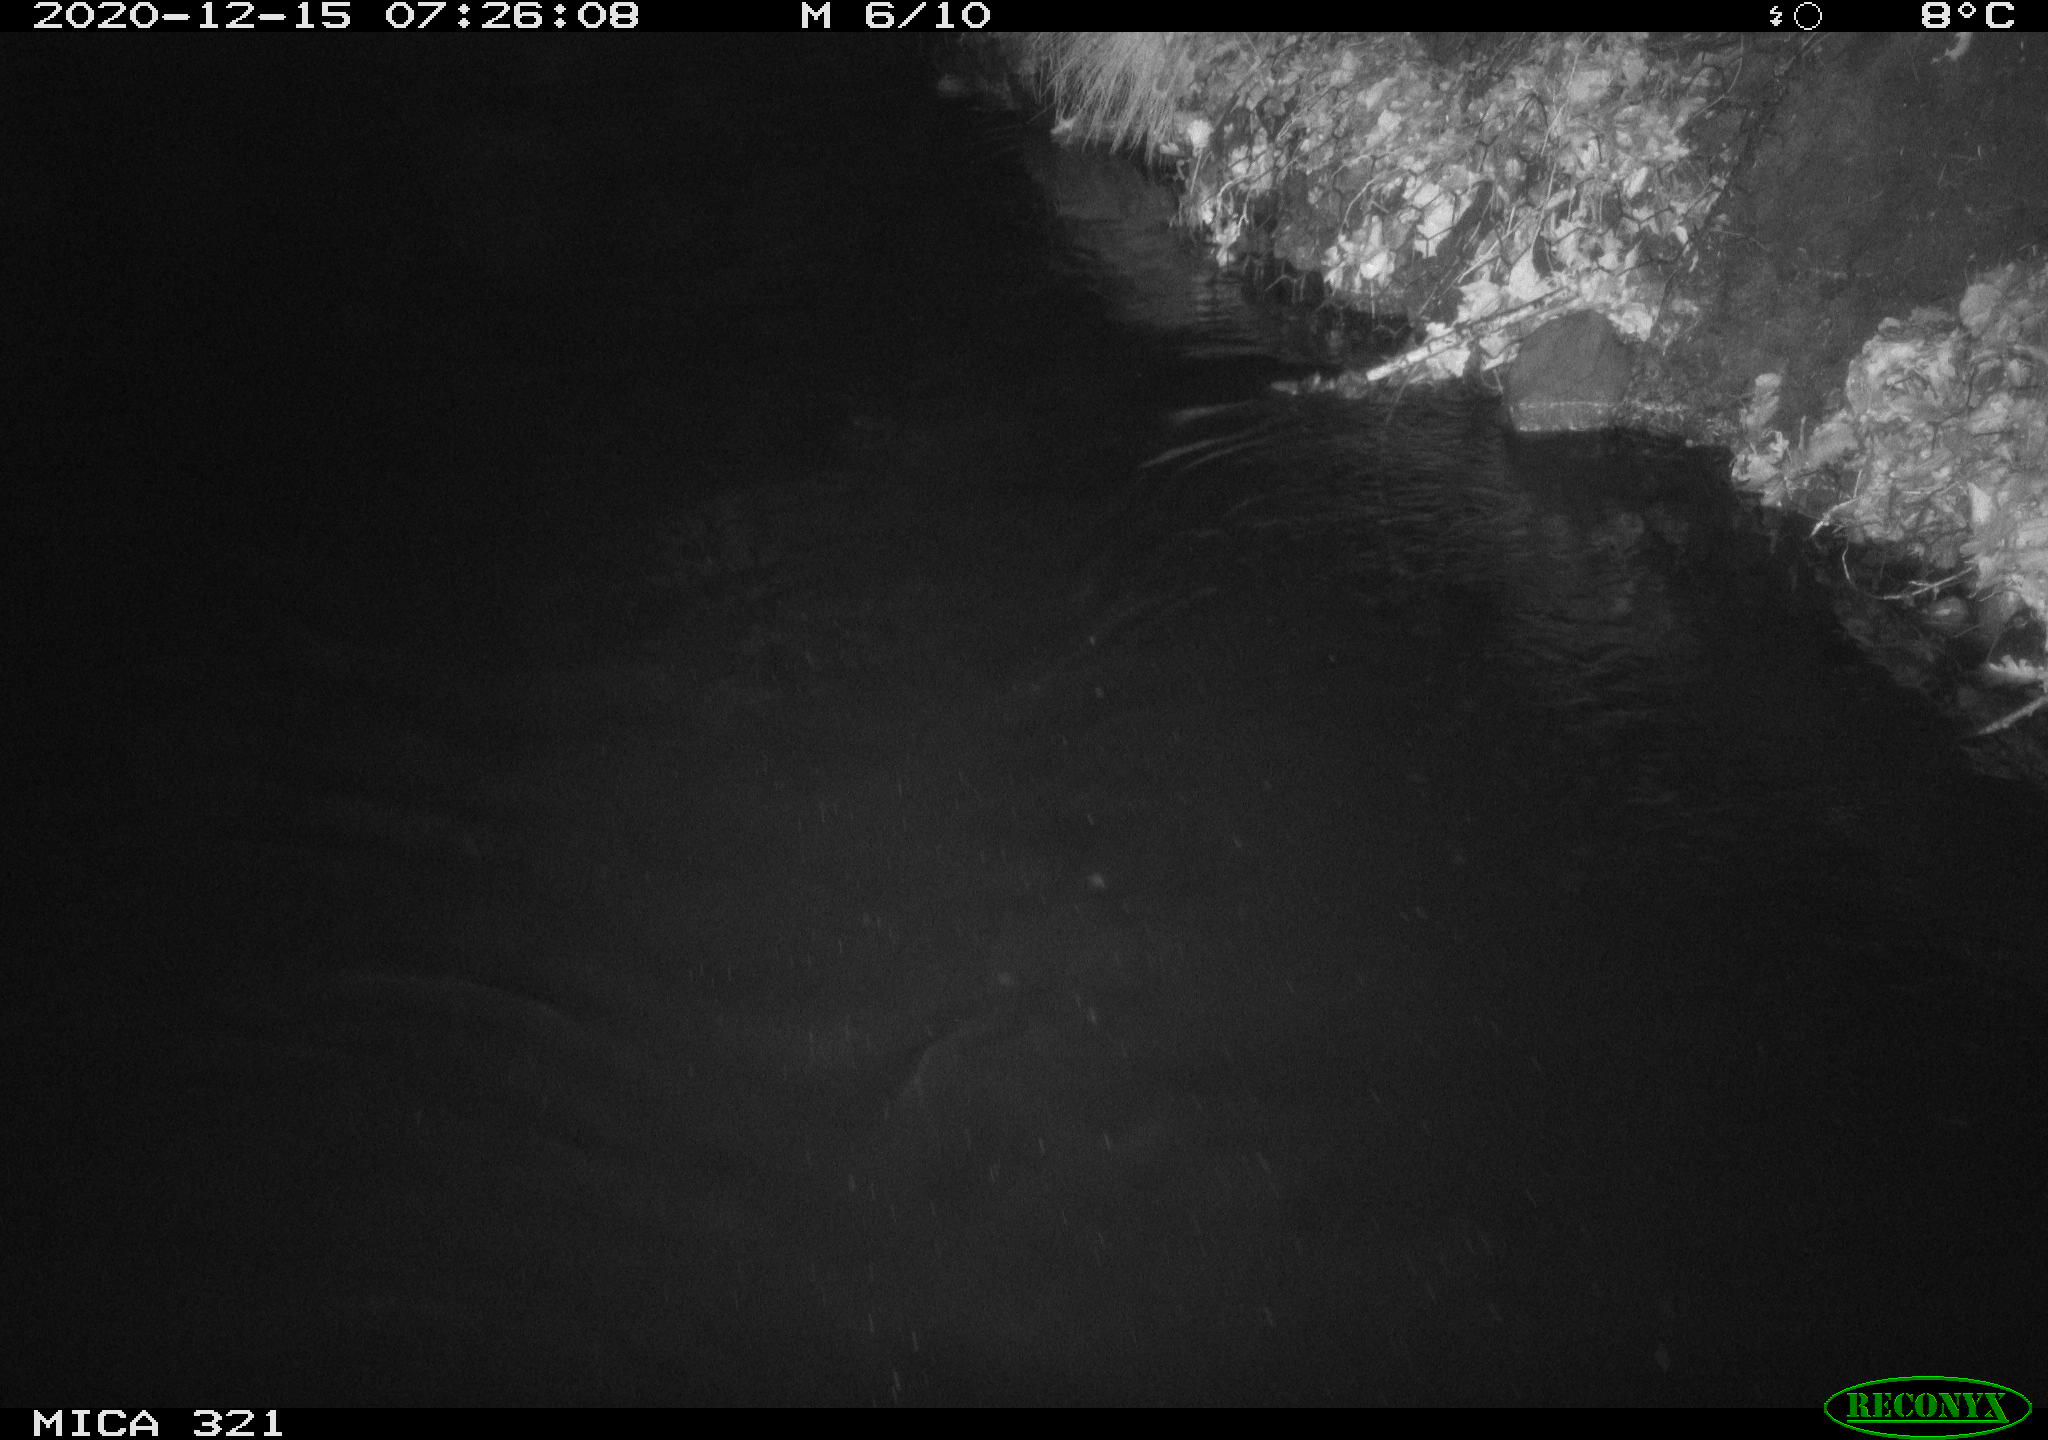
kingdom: Animalia
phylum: Chordata
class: Aves
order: Anseriformes
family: Anatidae
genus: Anas
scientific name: Anas platyrhynchos
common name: Mallard
